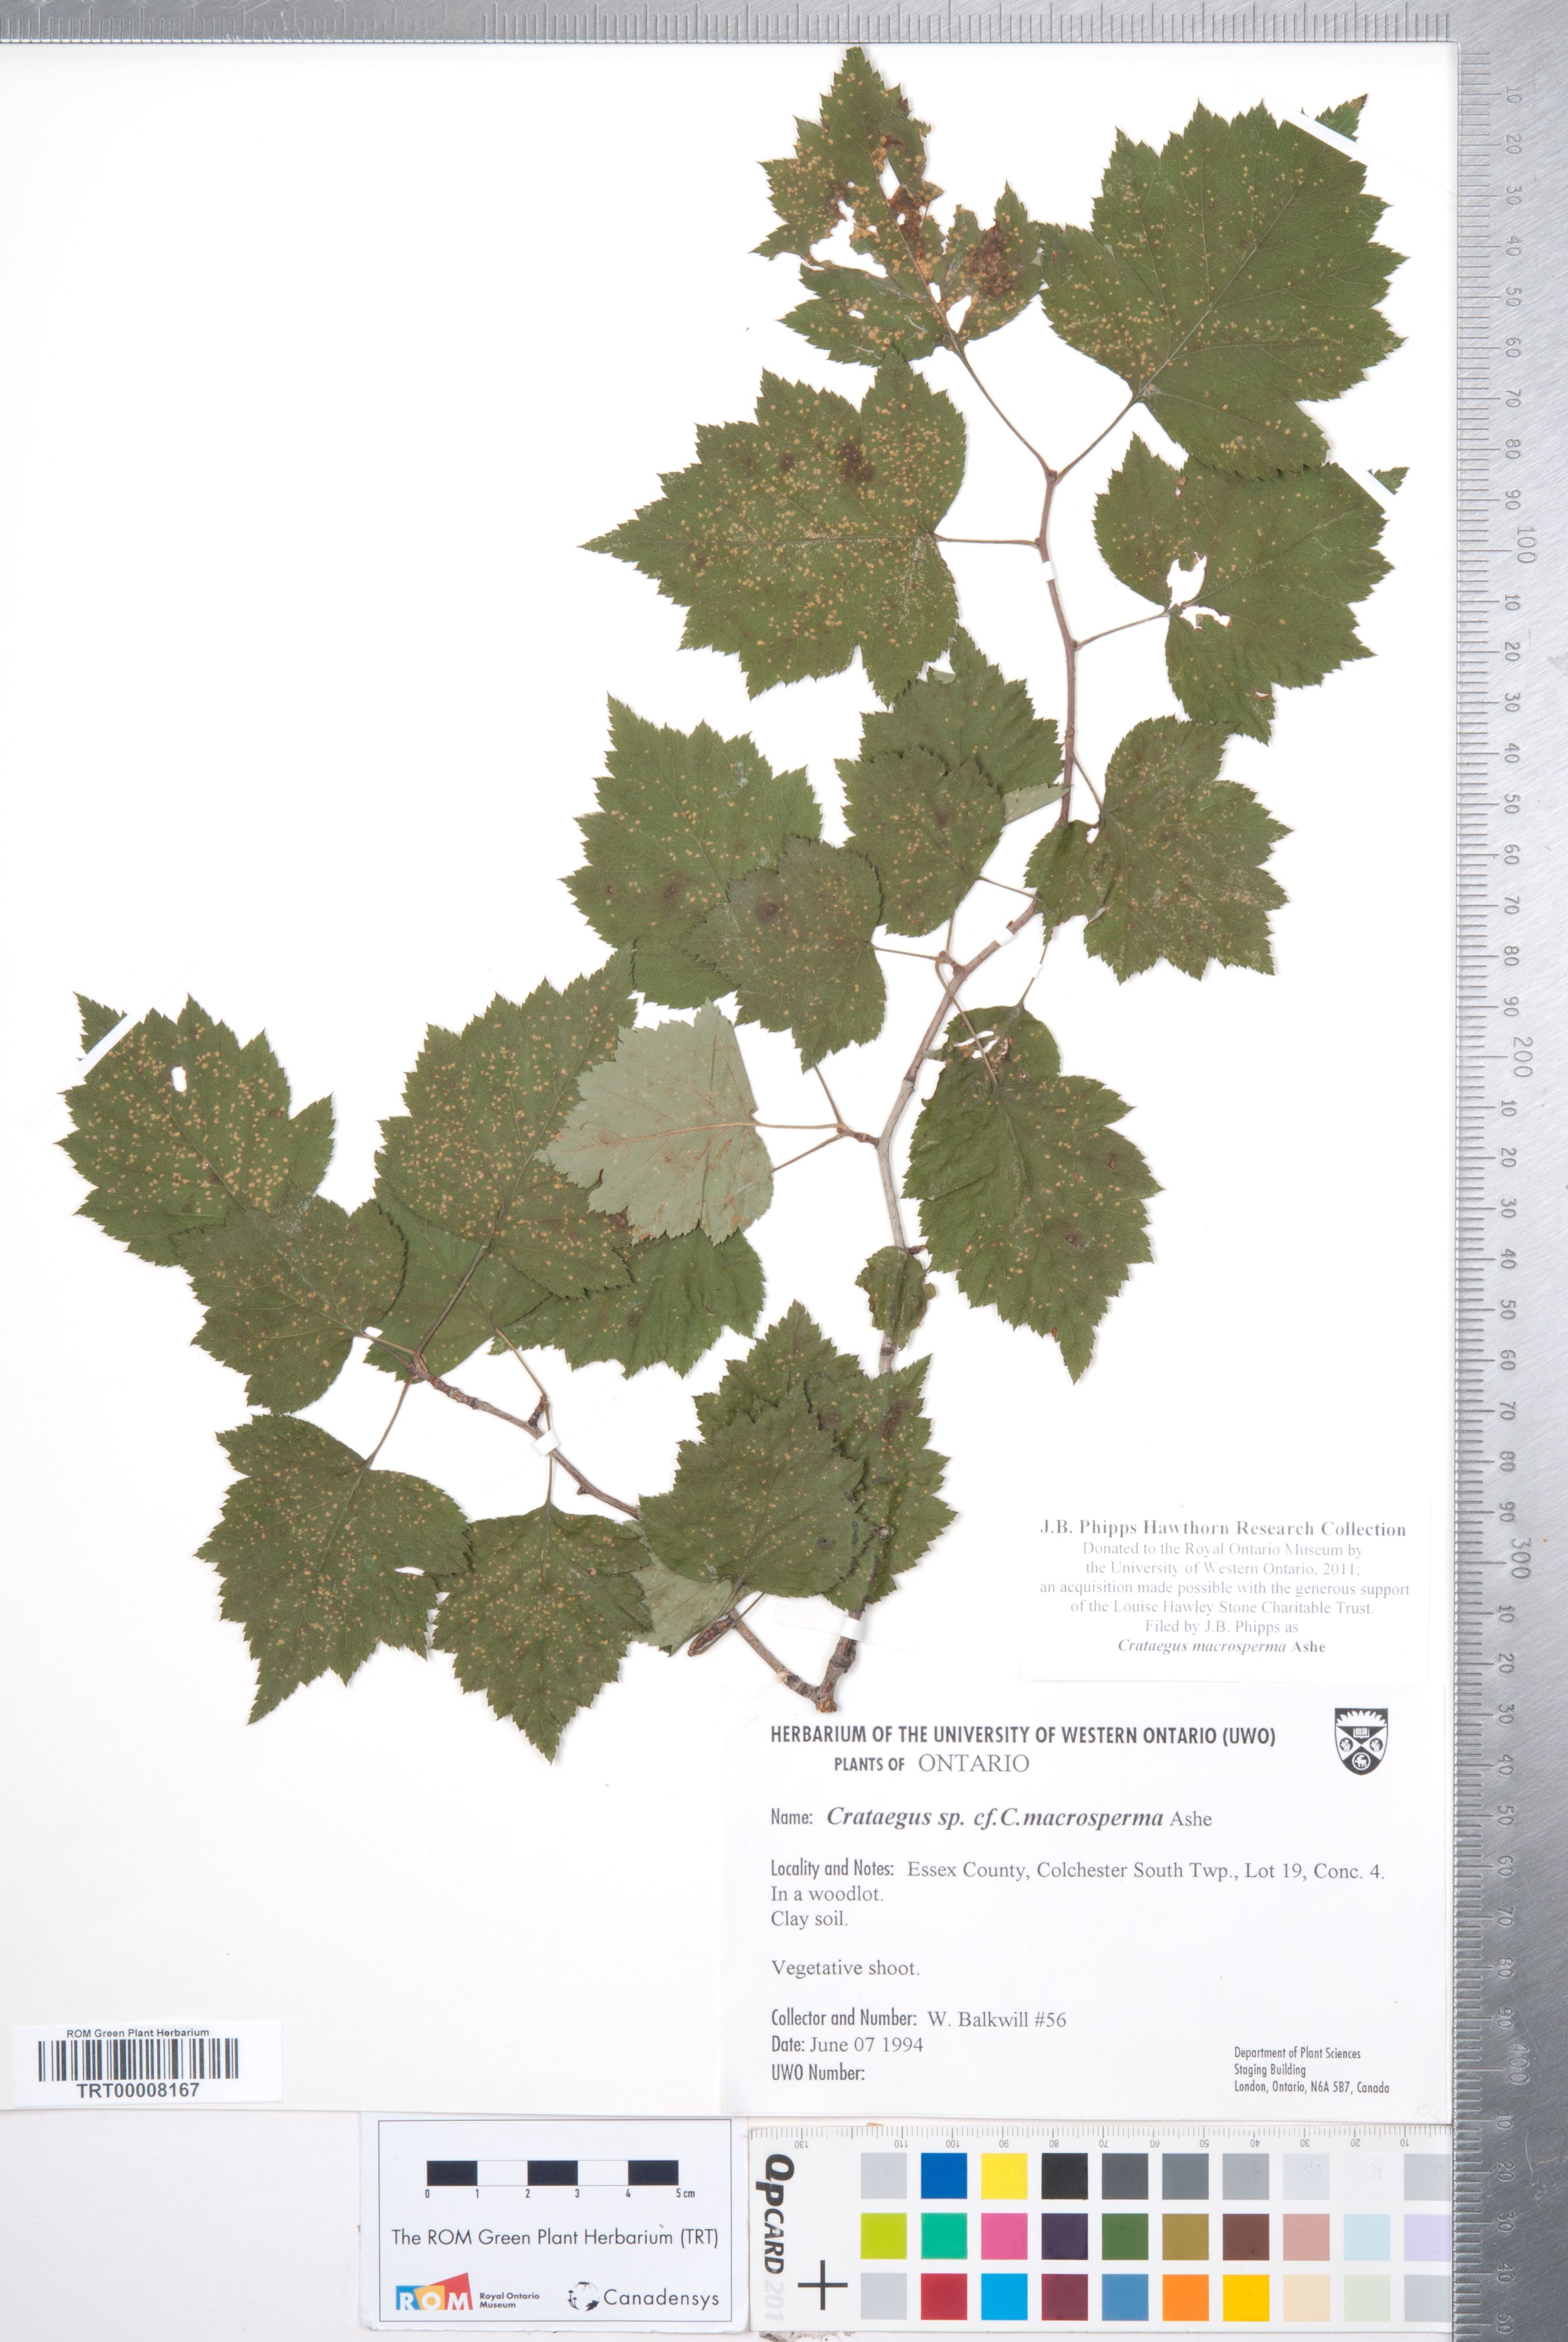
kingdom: Plantae
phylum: Tracheophyta
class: Magnoliopsida
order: Rosales
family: Rosaceae
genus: Crataegus
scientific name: Crataegus macrosperma
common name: Variable hawthorn
